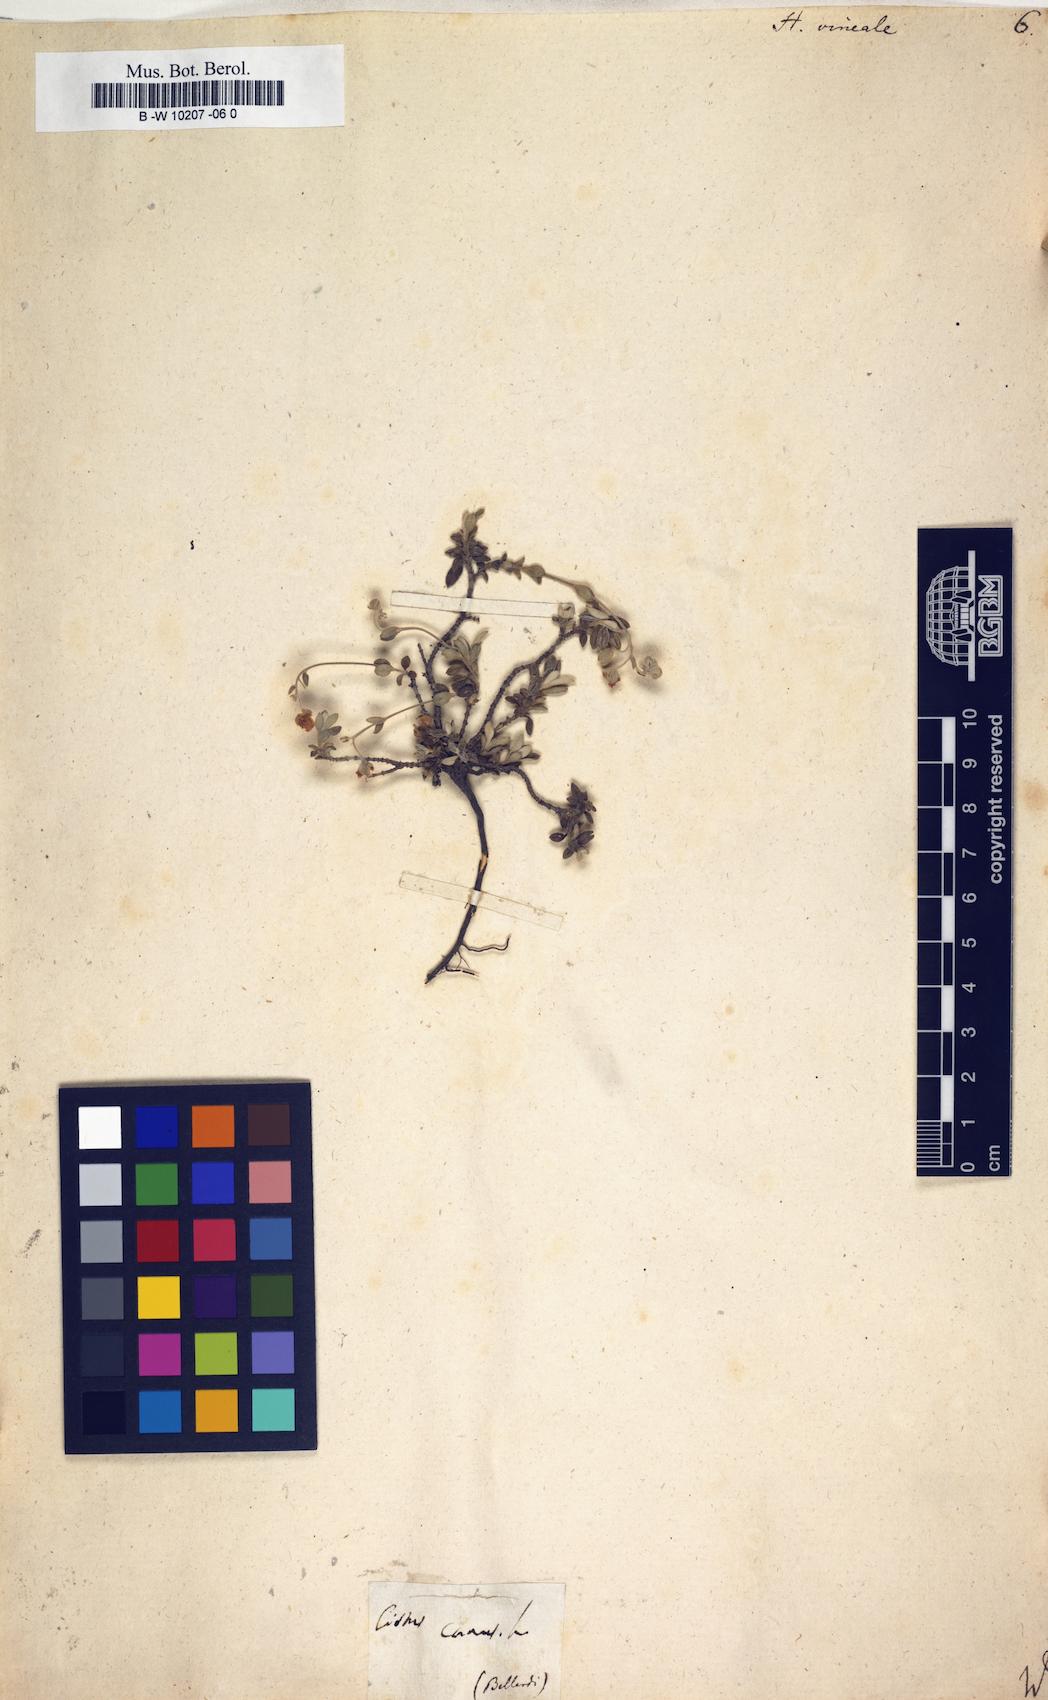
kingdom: Plantae
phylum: Tracheophyta
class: Magnoliopsida
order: Malvales
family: Cistaceae
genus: Helianthemum
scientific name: Helianthemum canum
